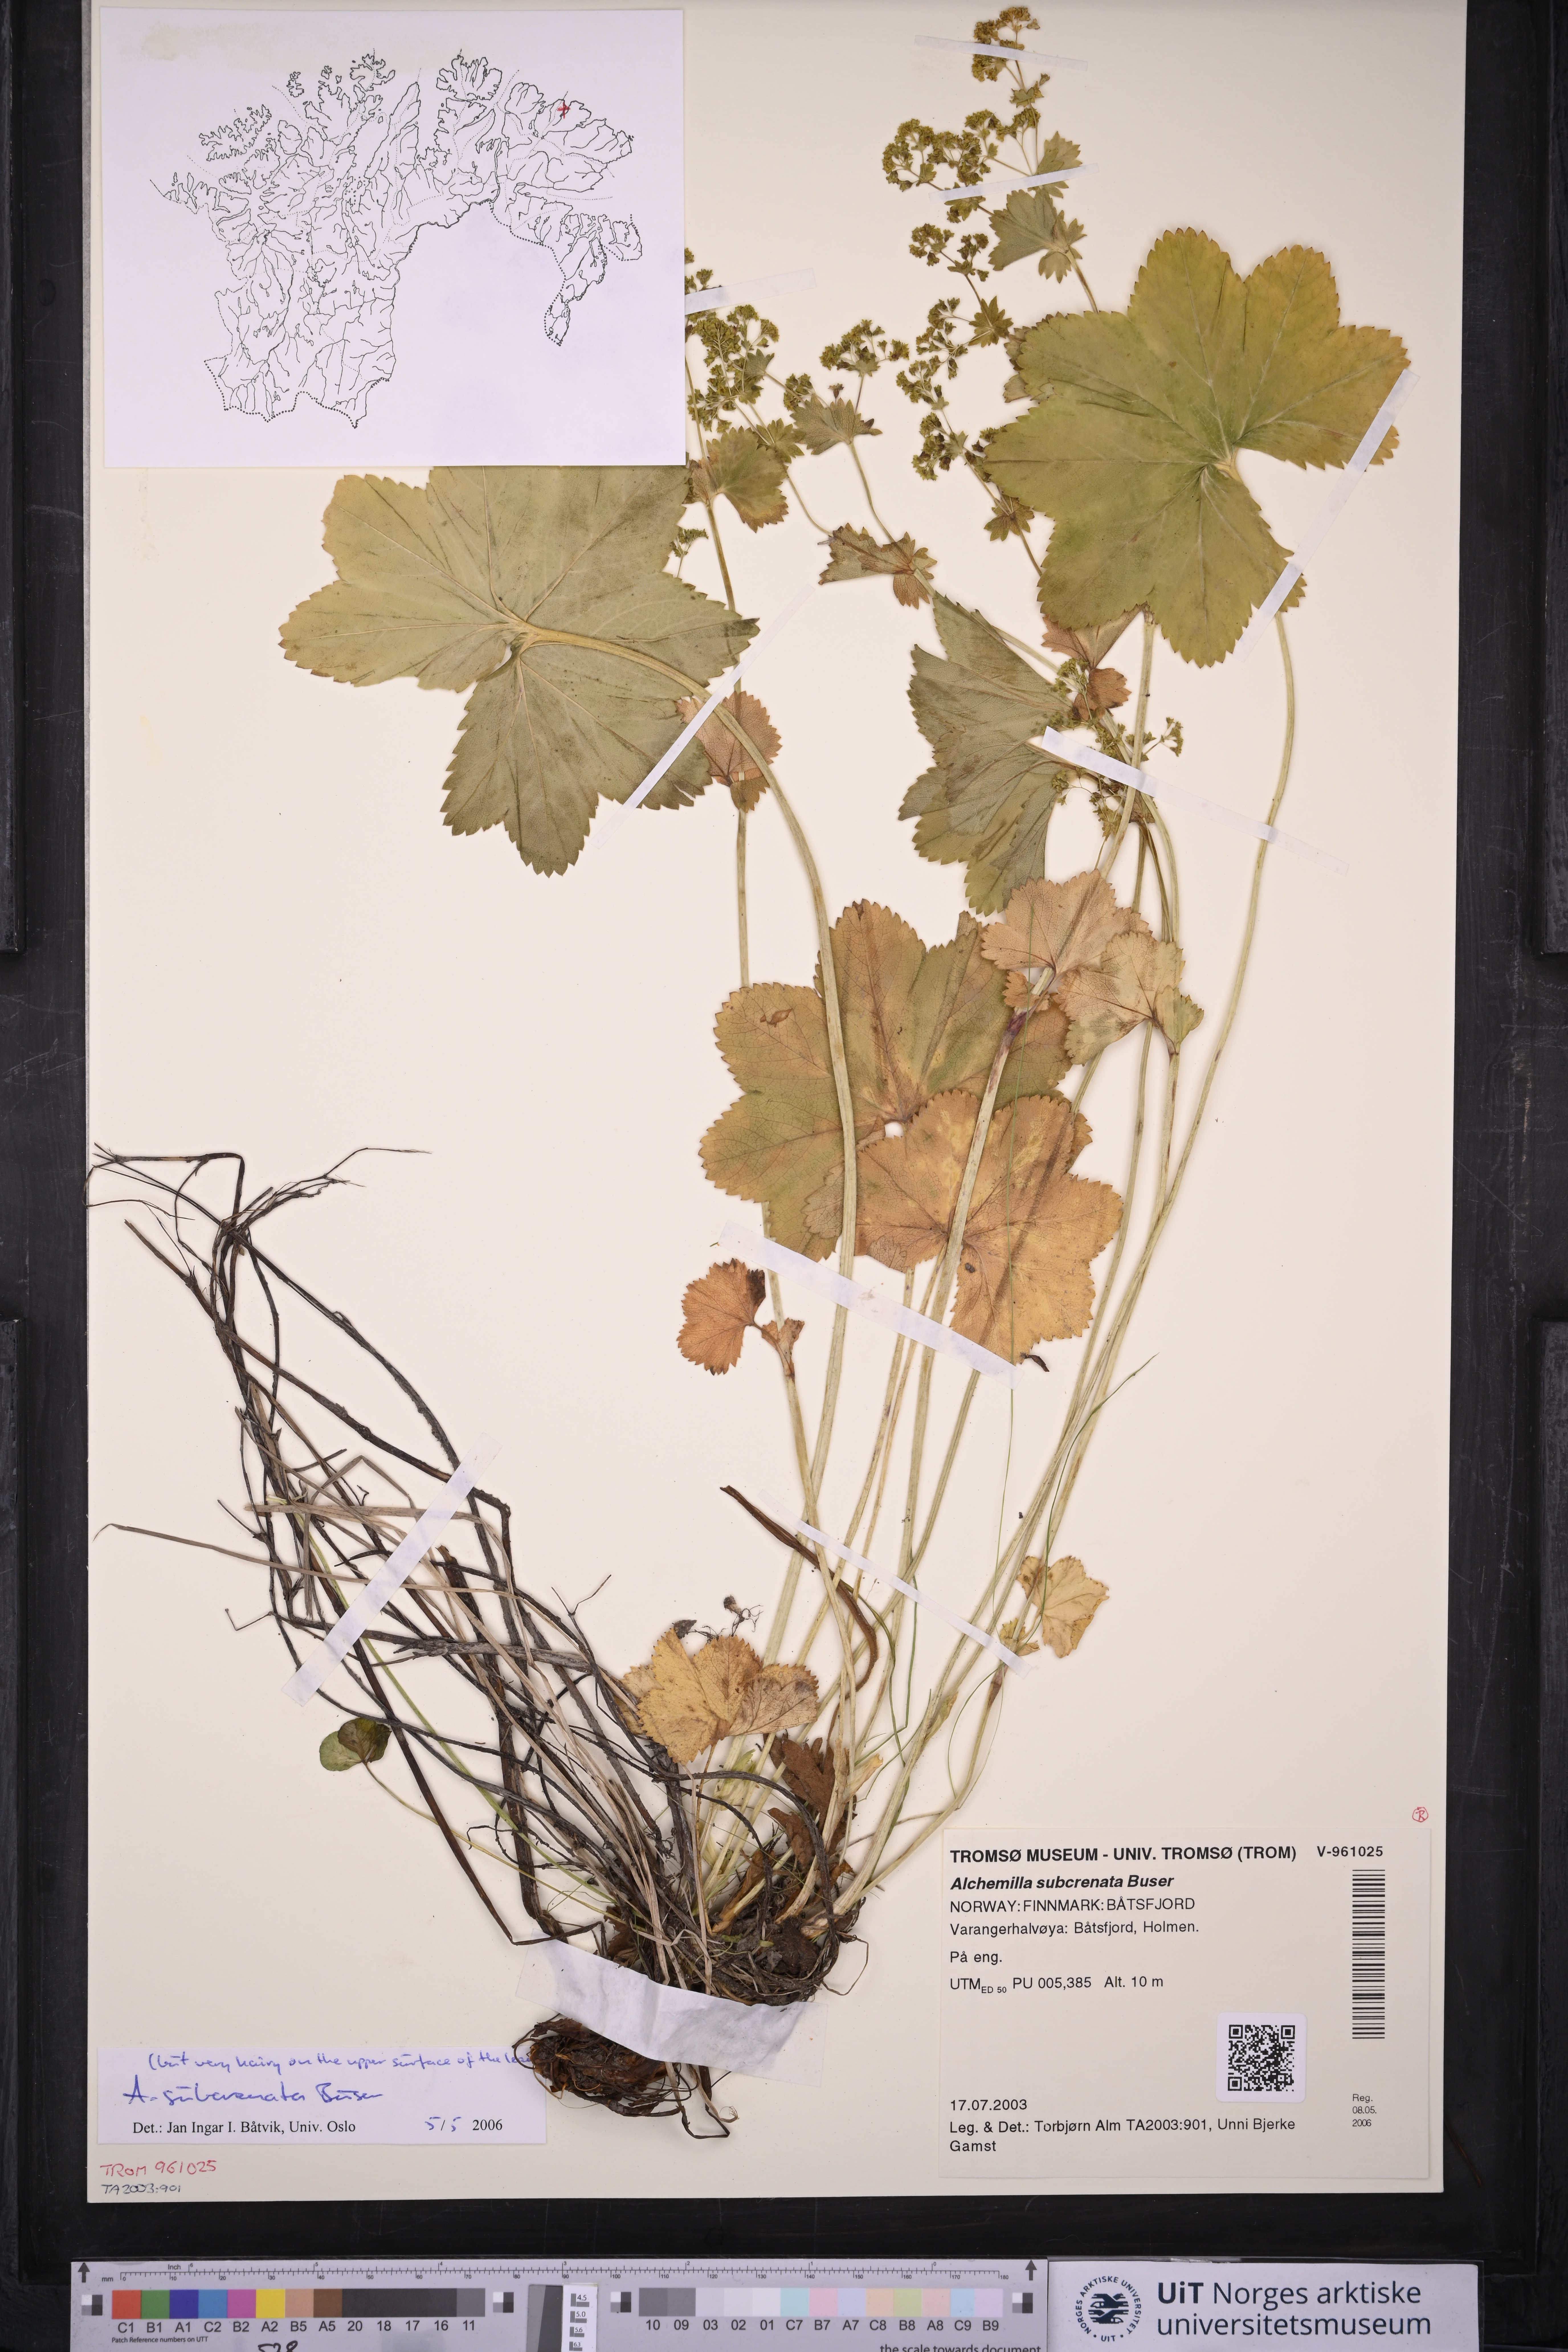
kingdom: Plantae
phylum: Tracheophyta
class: Magnoliopsida
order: Rosales
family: Rosaceae
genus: Alchemilla
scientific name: Alchemilla subcrenata
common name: Broadtooth lady's mantle
